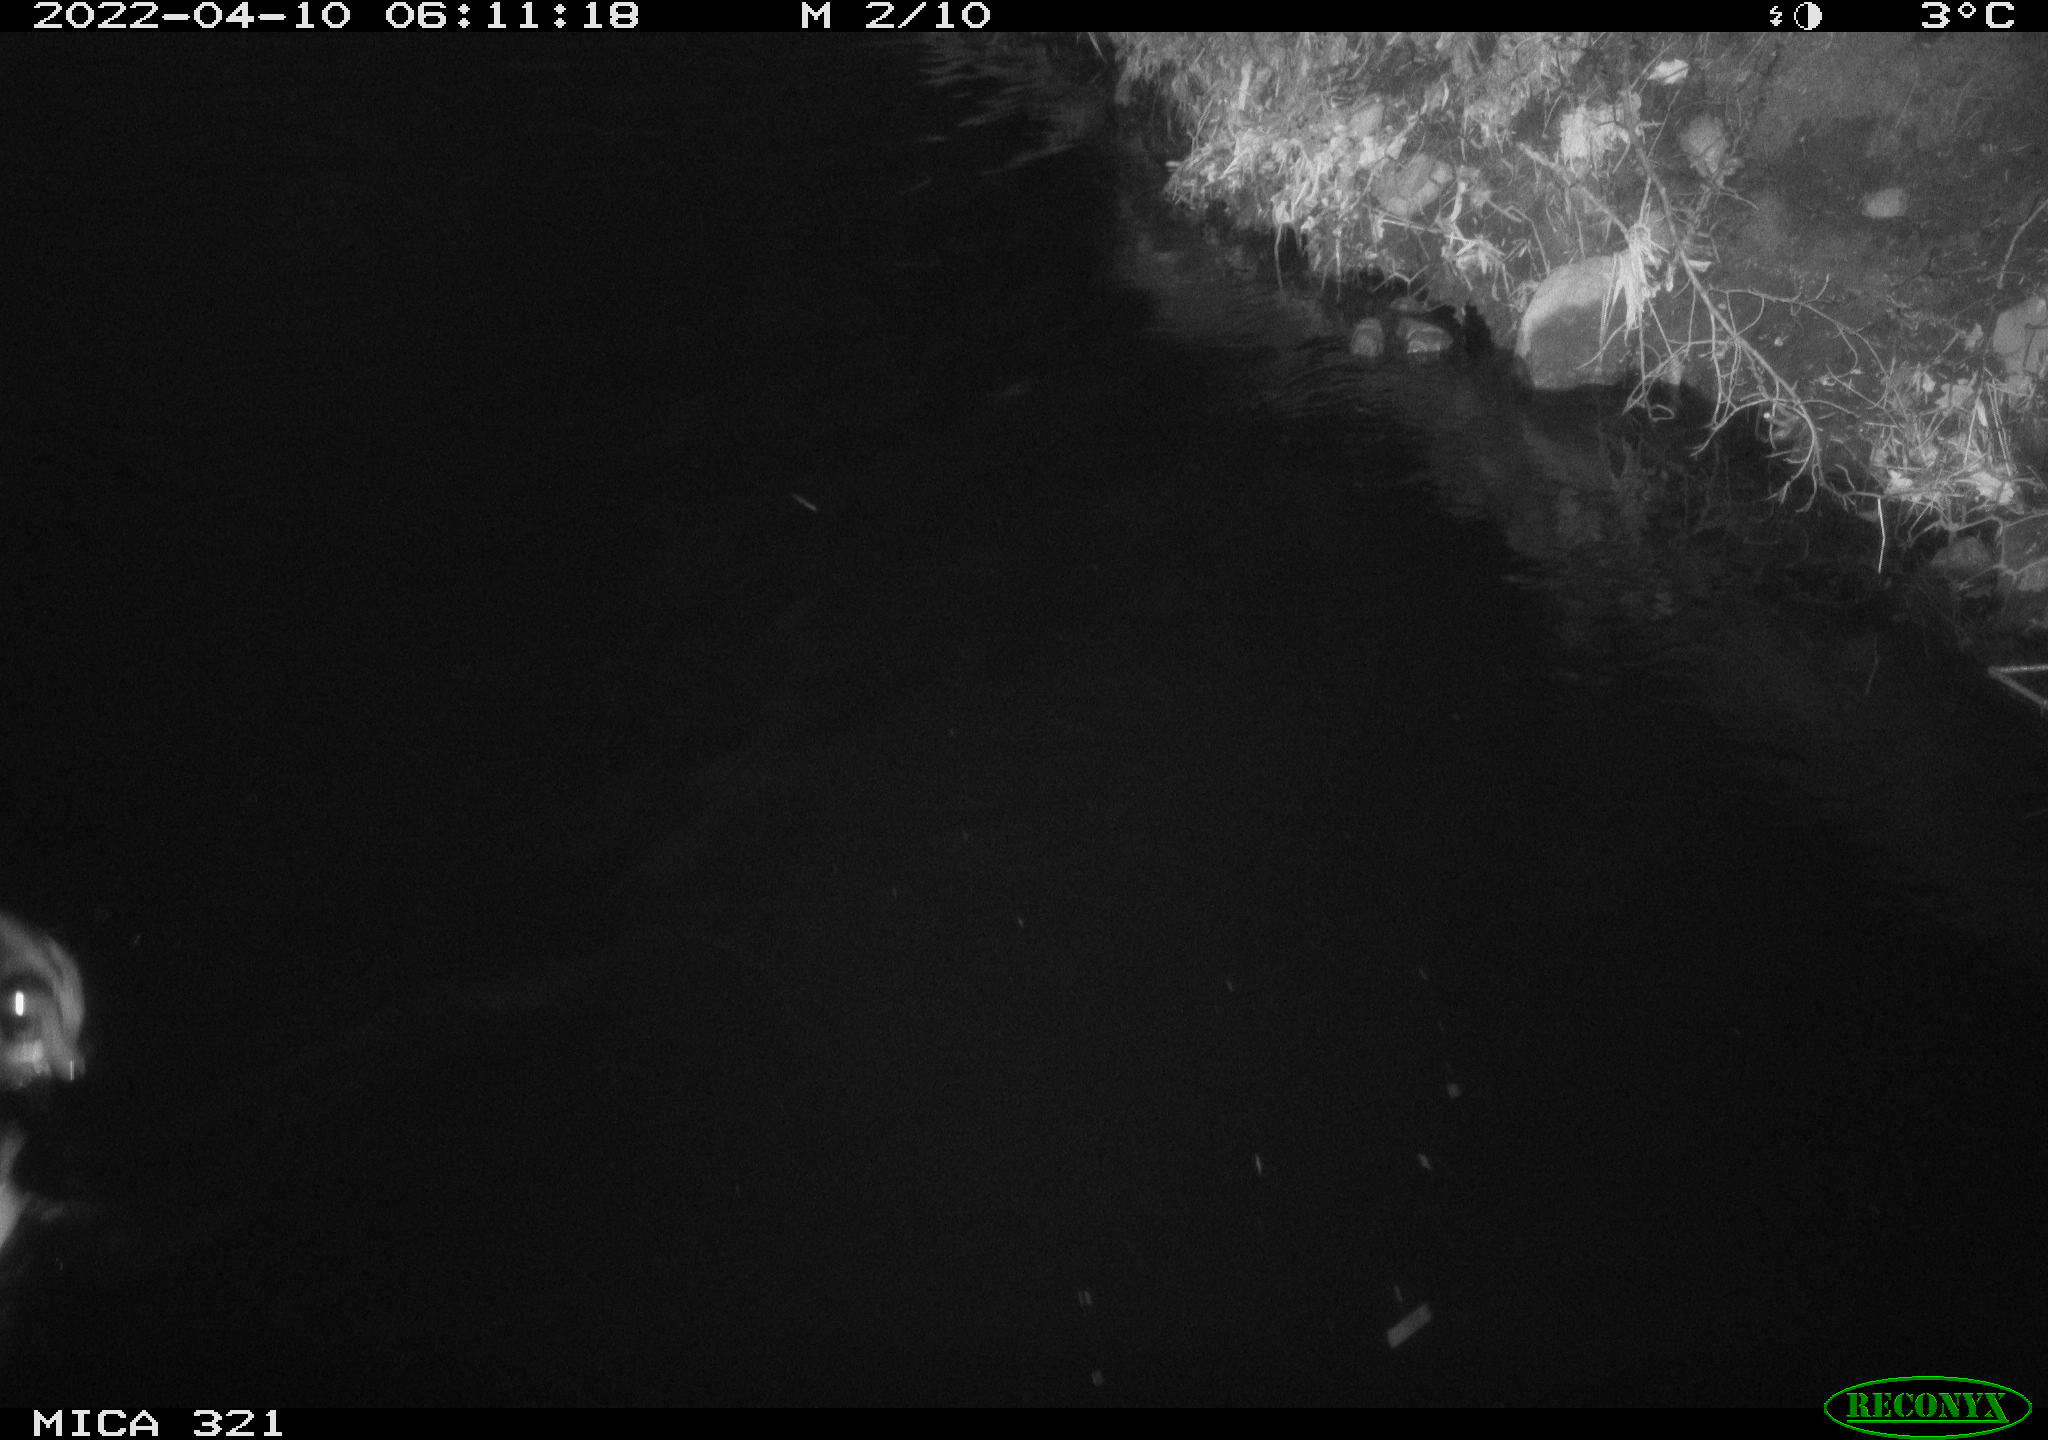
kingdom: Animalia
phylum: Chordata
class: Aves
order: Anseriformes
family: Anatidae
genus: Anas
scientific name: Anas platyrhynchos
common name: Mallard
